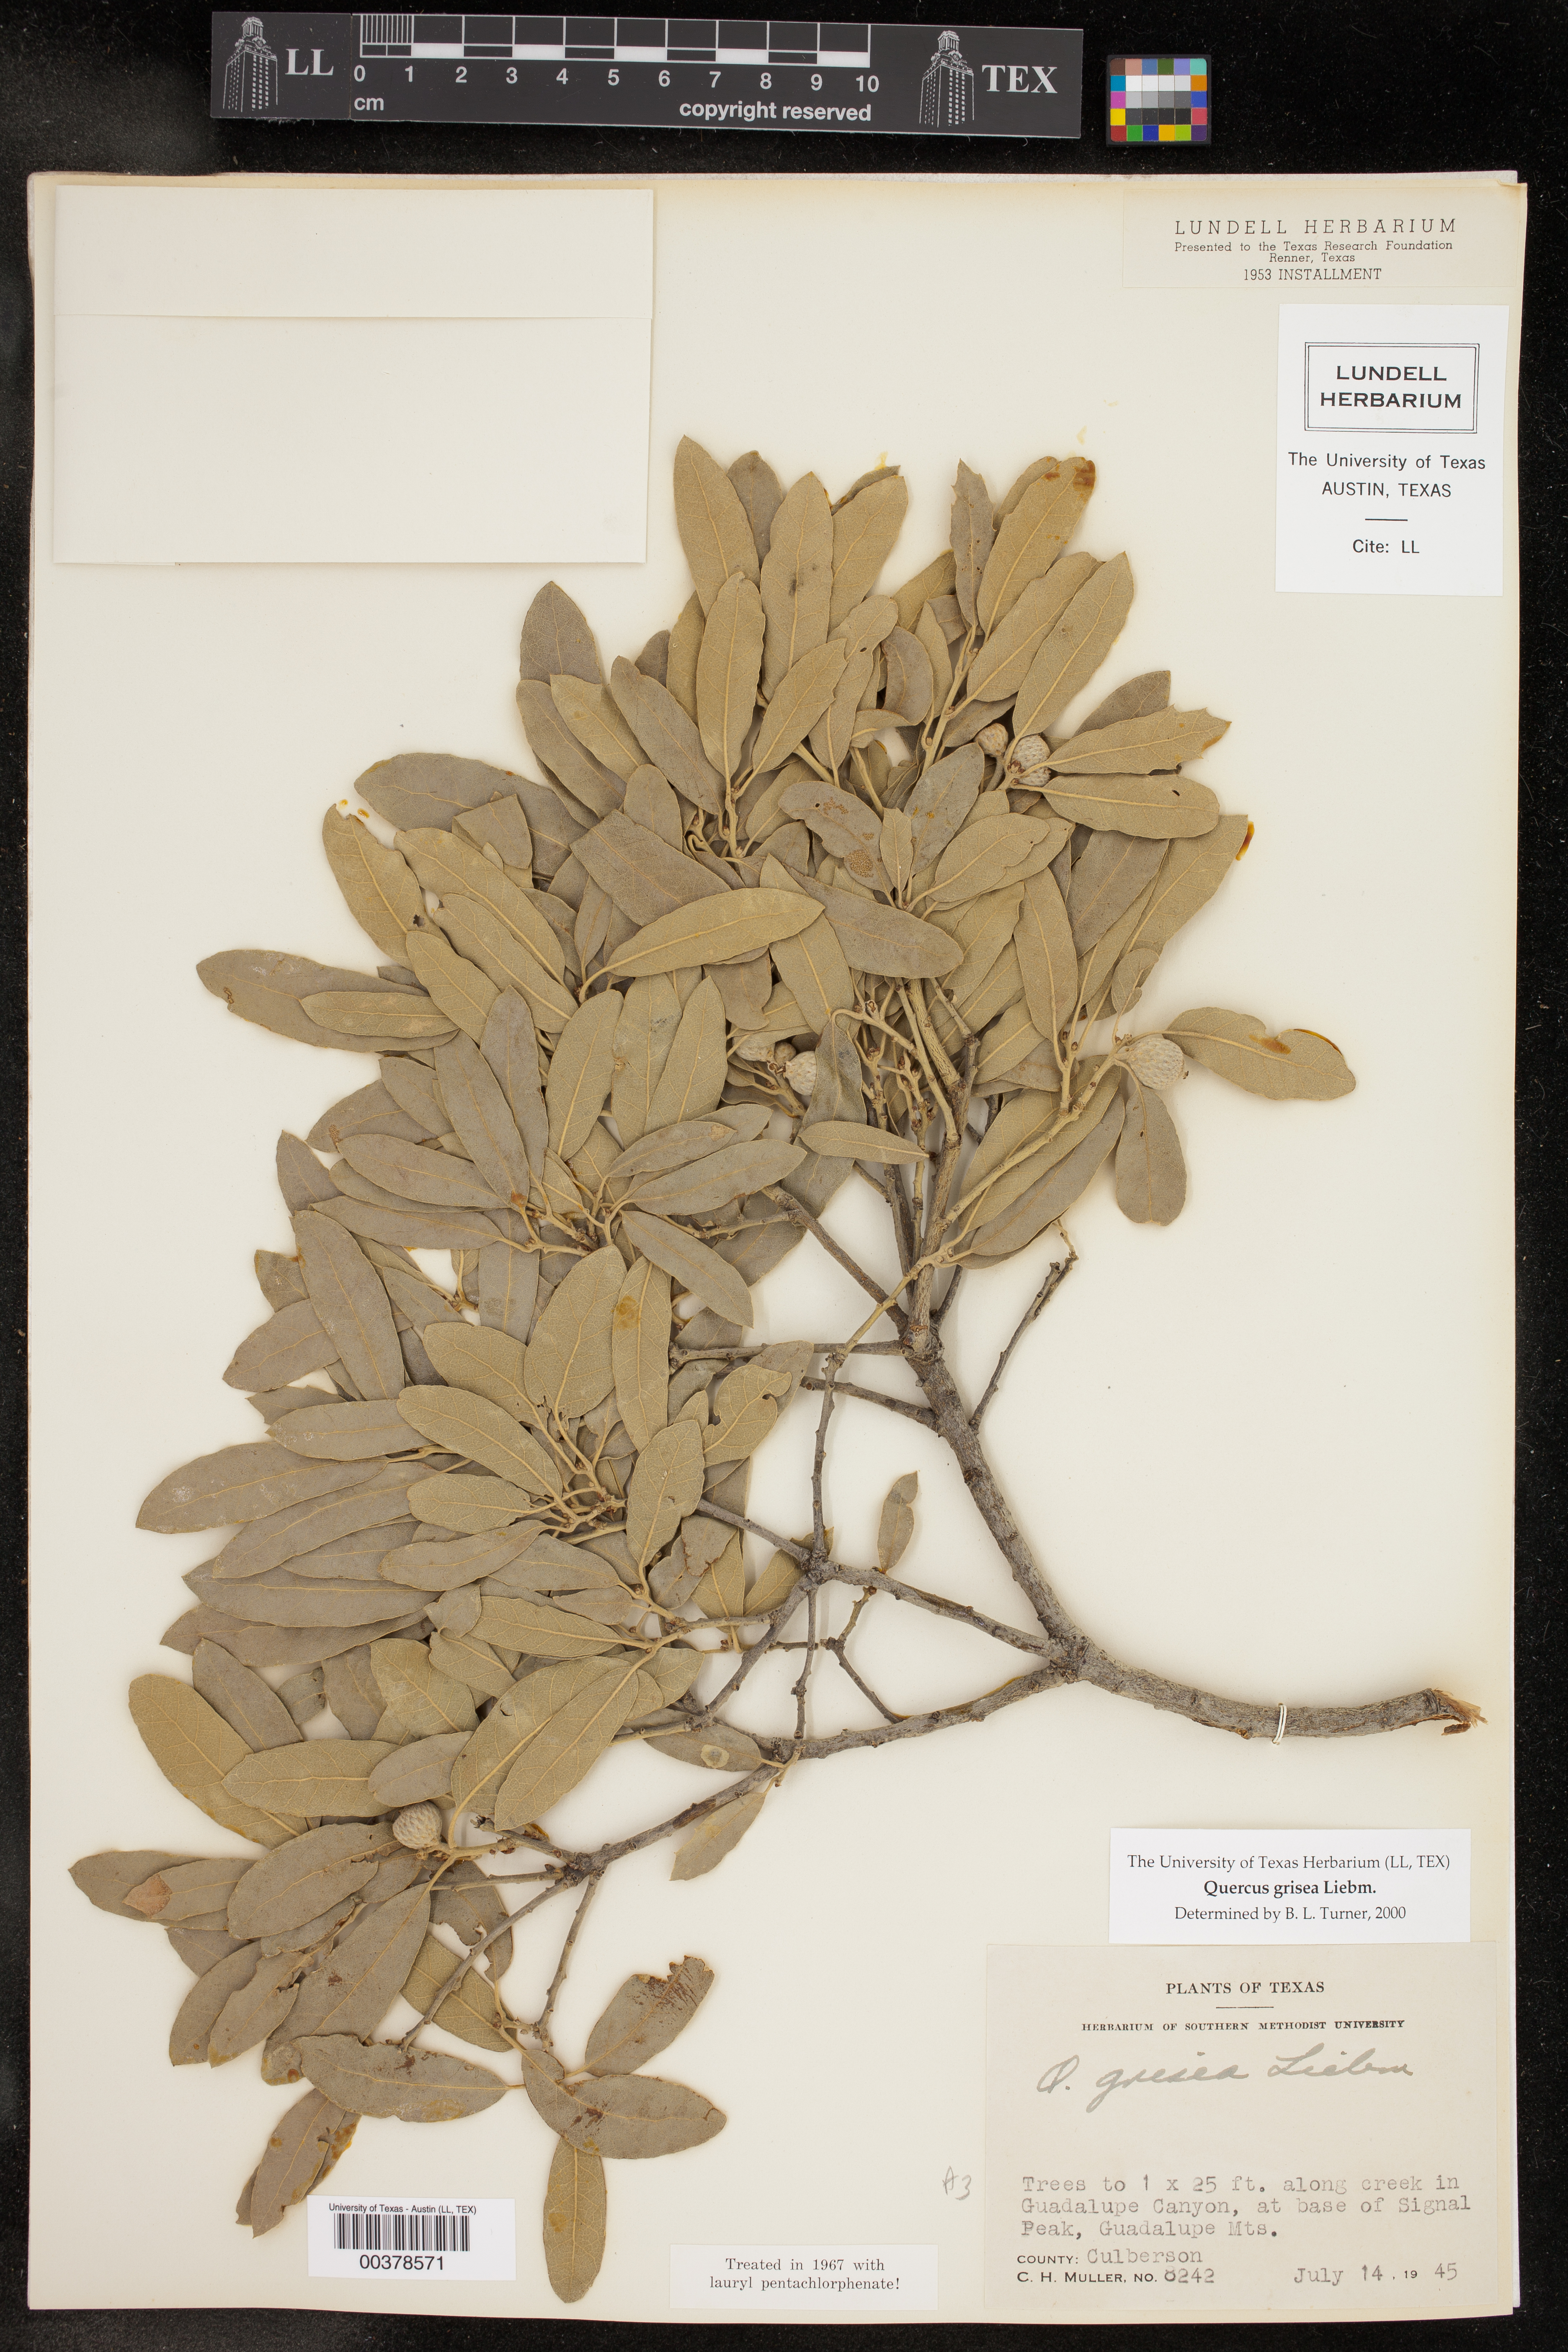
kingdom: Plantae
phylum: Tracheophyta
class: Magnoliopsida
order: Fagales
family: Fagaceae
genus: Quercus
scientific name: Quercus grisea
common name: Gray oak
